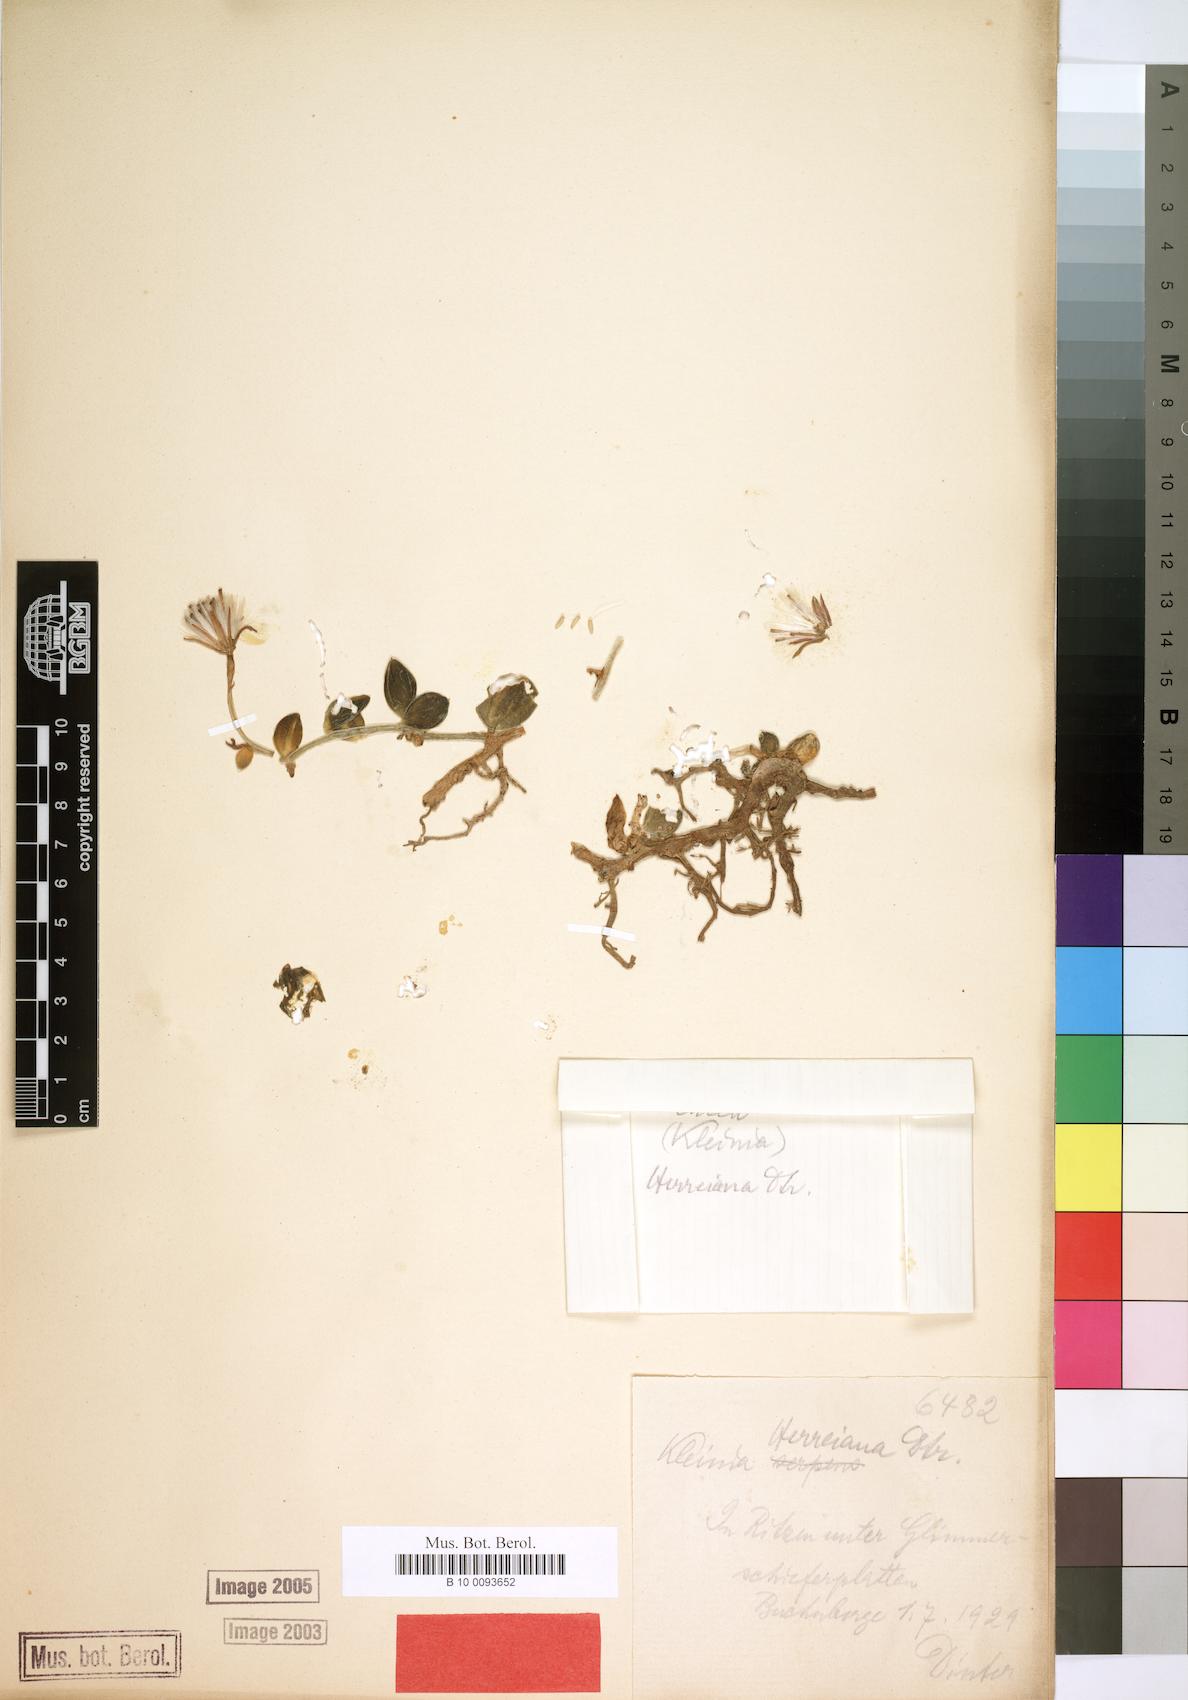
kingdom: Plantae
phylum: Tracheophyta
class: Magnoliopsida
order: Asterales
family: Asteraceae
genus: Kleinia
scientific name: Kleinia herreiana
